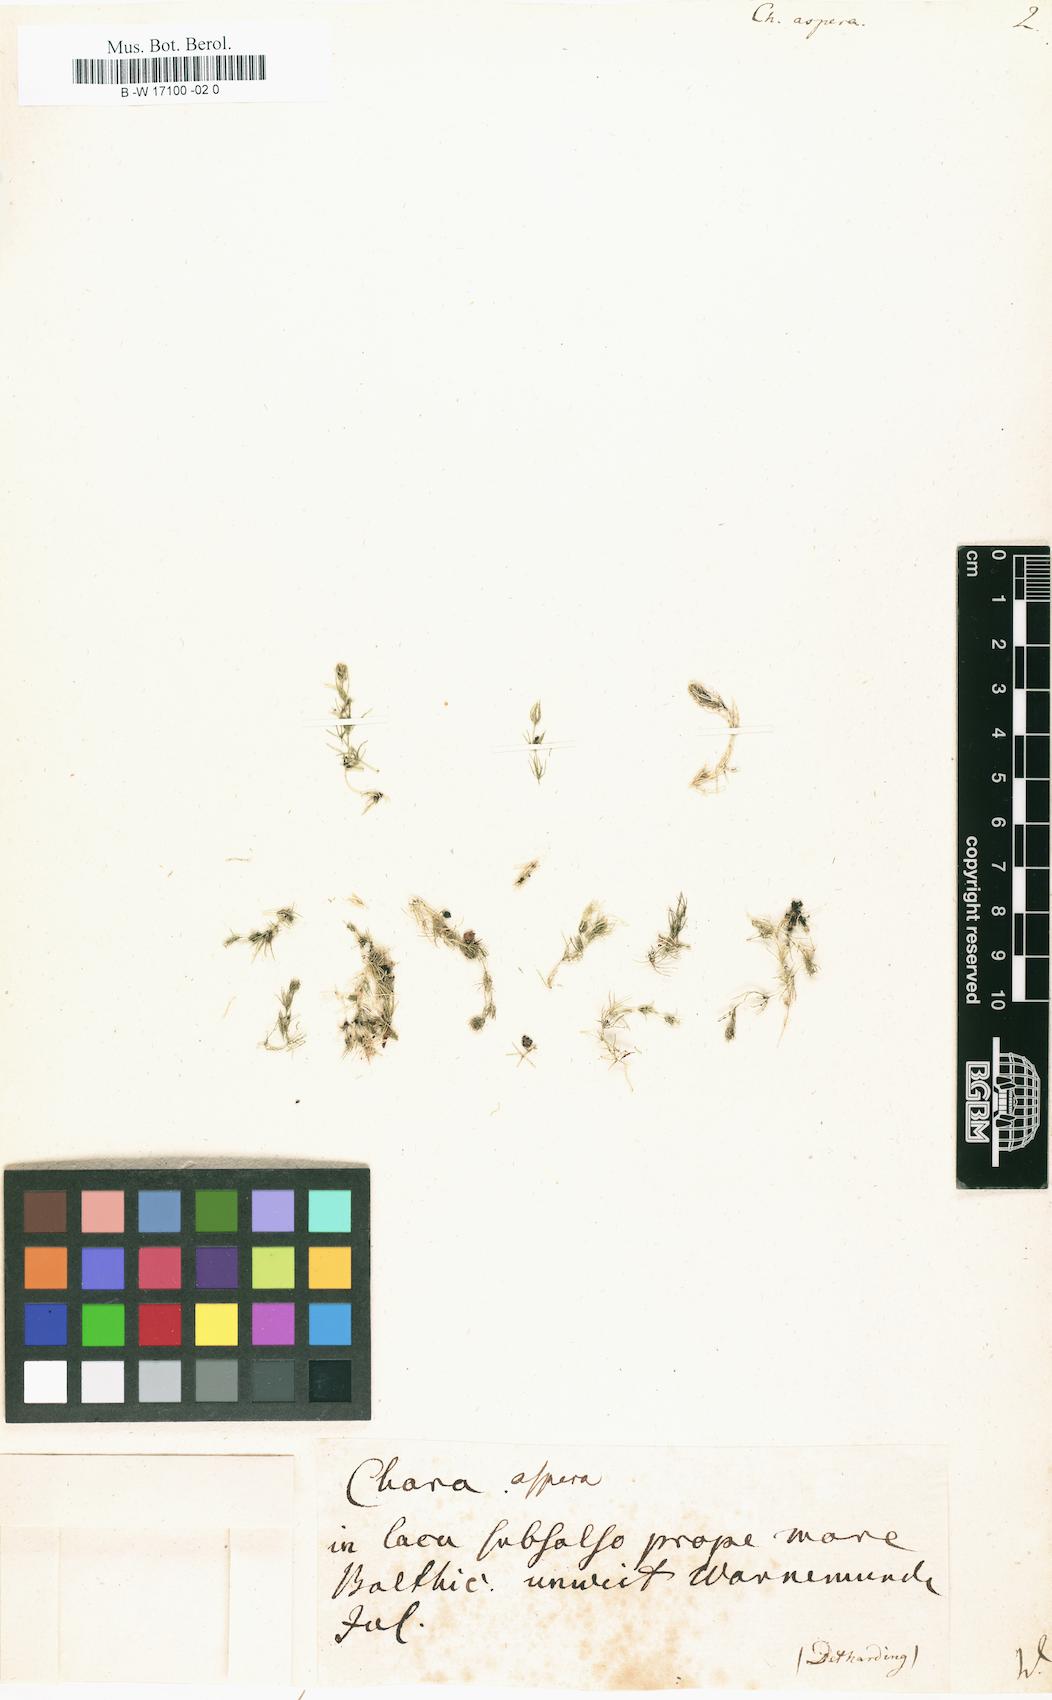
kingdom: Plantae
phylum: Charophyta
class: Charophyceae
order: Charales
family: Characeae
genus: Chara
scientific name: Chara aspera
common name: Rough stonewort
